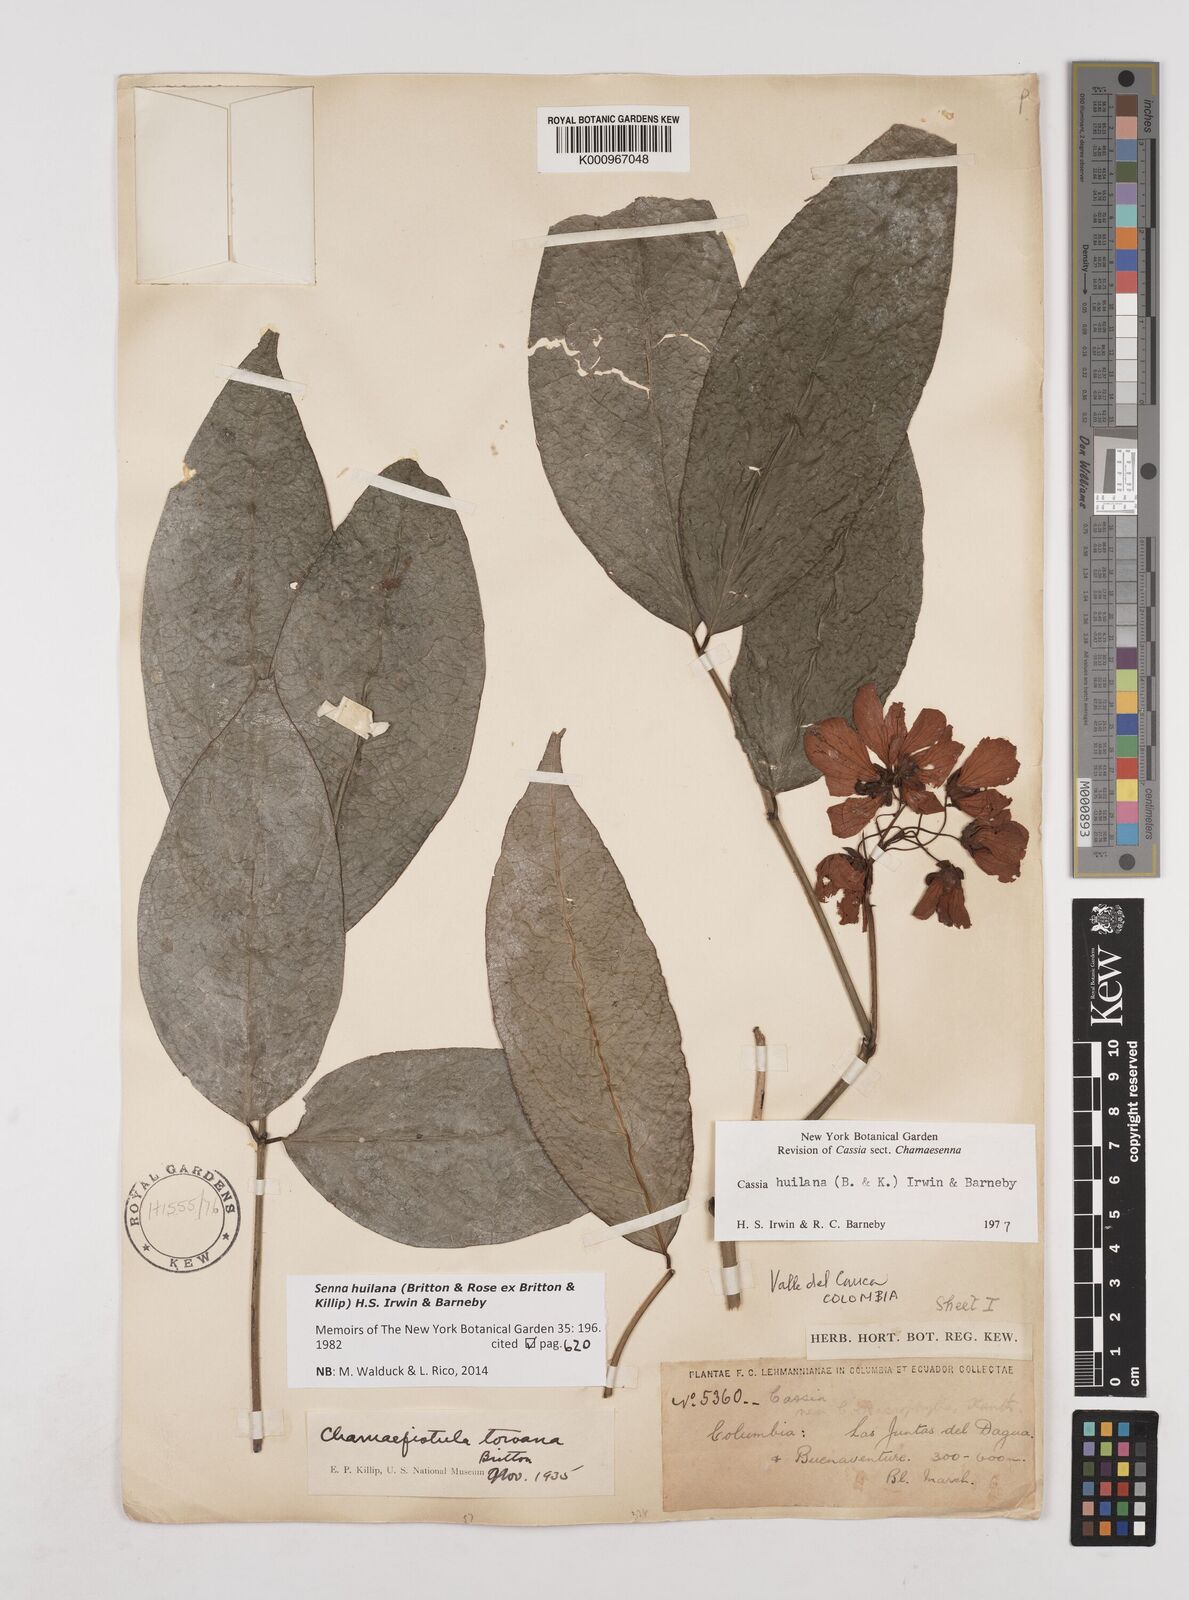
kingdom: Plantae
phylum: Tracheophyta
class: Magnoliopsida
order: Fabales
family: Fabaceae
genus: Senna
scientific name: Senna huilana
